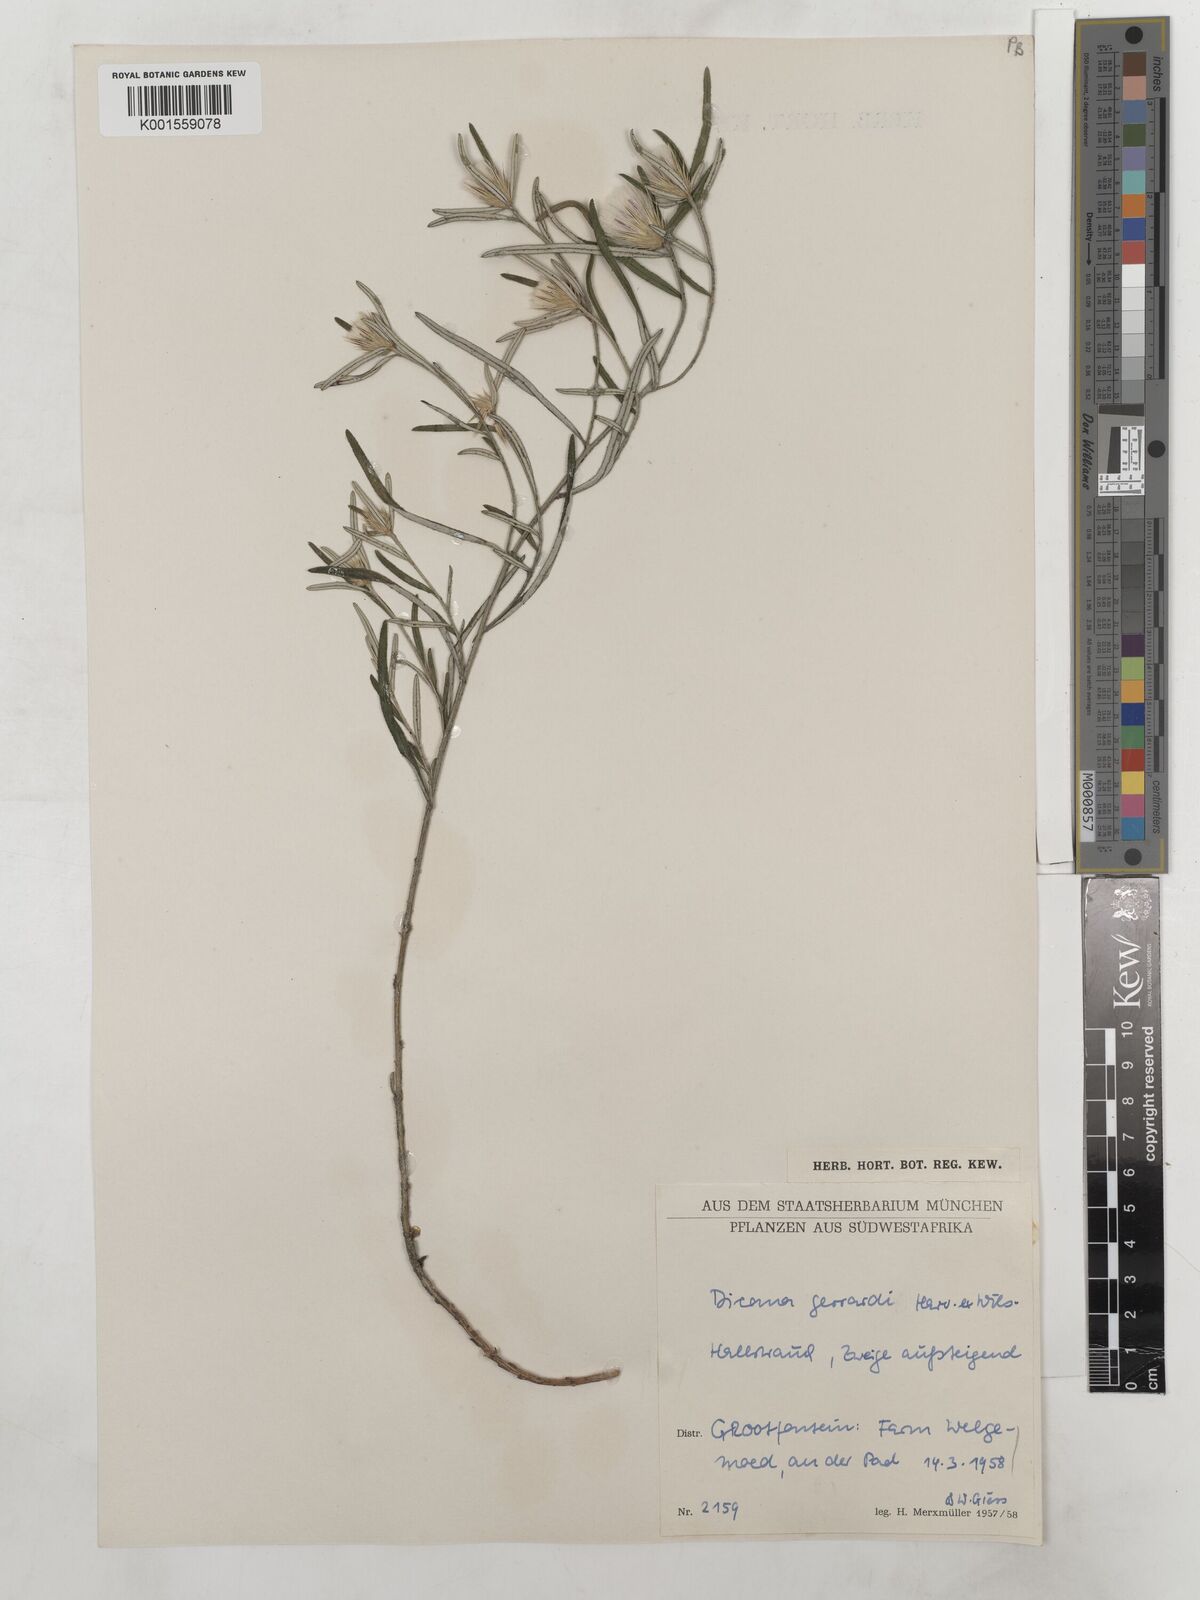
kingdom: Plantae
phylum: Tracheophyta
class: Magnoliopsida
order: Asterales
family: Asteraceae
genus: Dicoma
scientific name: Dicoma anomala
